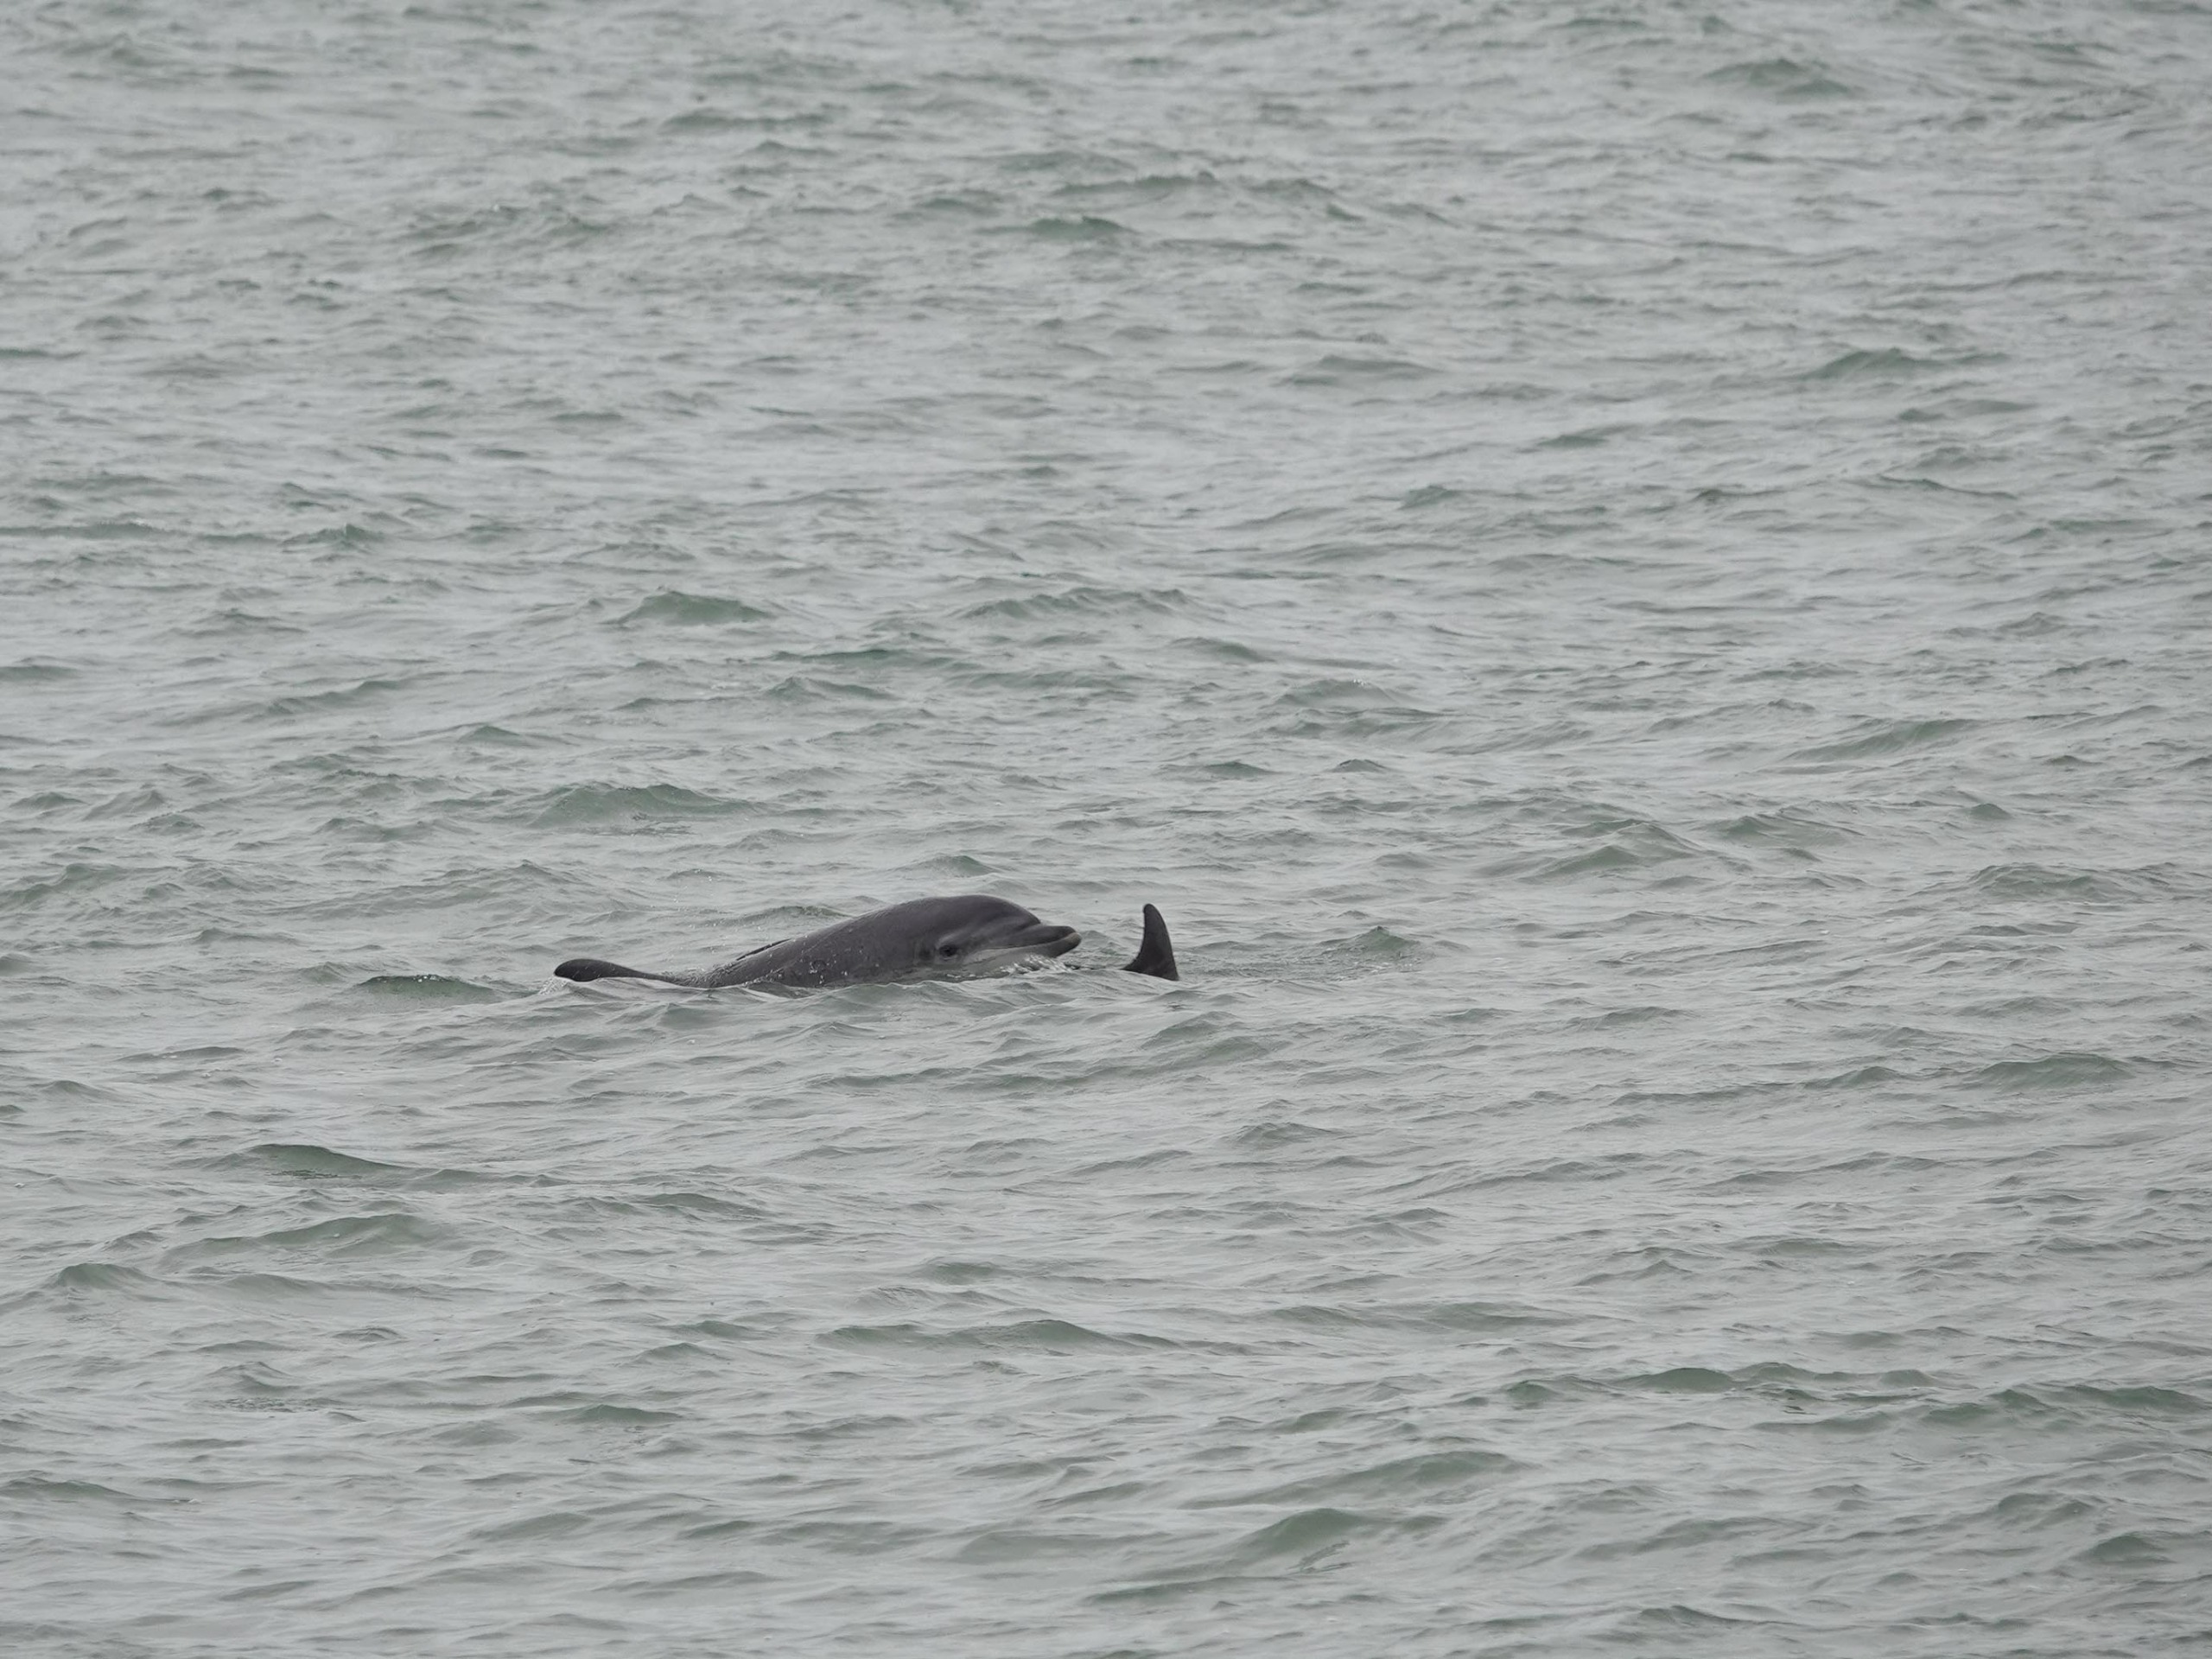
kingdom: Animalia
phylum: Chordata
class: Mammalia
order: Cetacea
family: Delphinidae
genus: Tursiops
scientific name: Tursiops truncatus
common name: Øresvin
